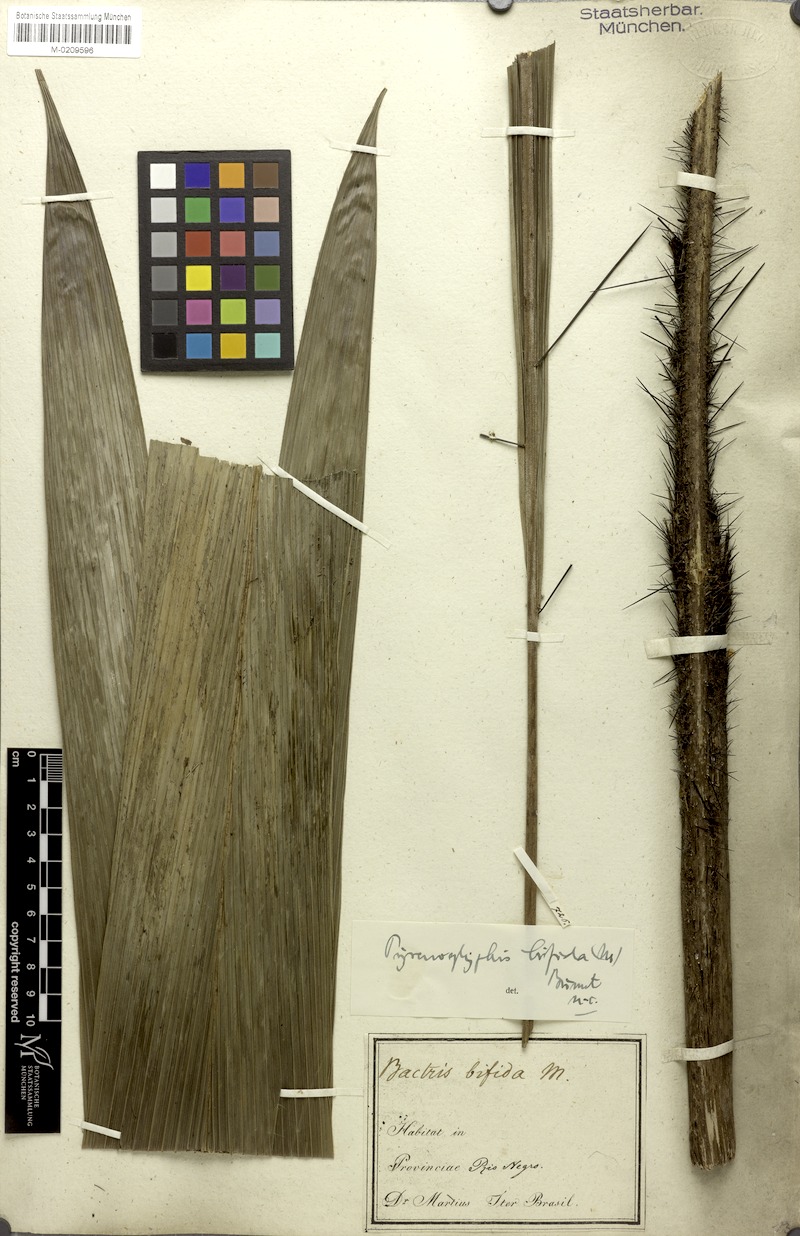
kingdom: Plantae
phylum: Tracheophyta
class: Liliopsida
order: Arecales
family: Arecaceae
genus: Bactris
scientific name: Bactris bifida
